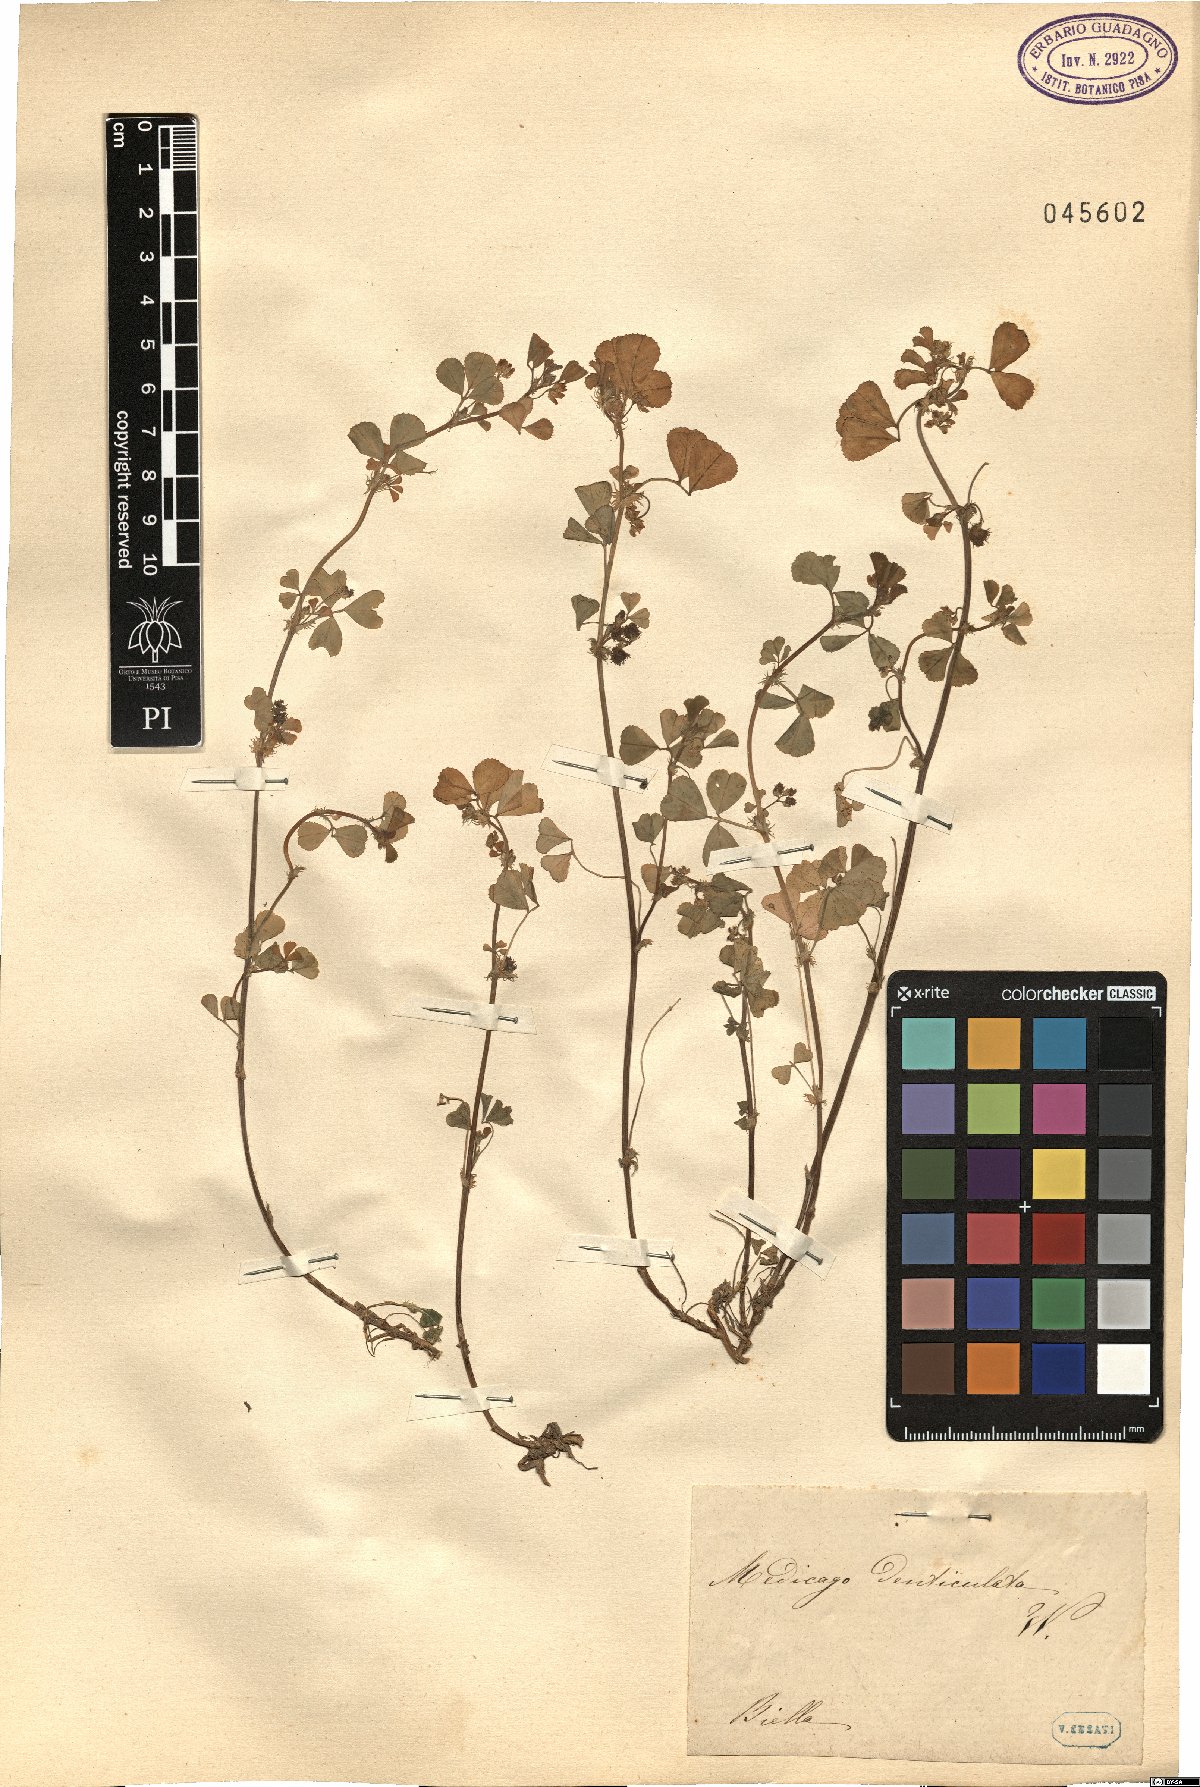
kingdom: Plantae
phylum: Tracheophyta
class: Magnoliopsida
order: Fabales
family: Fabaceae
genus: Medicago
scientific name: Medicago polymorpha
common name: Burclover
